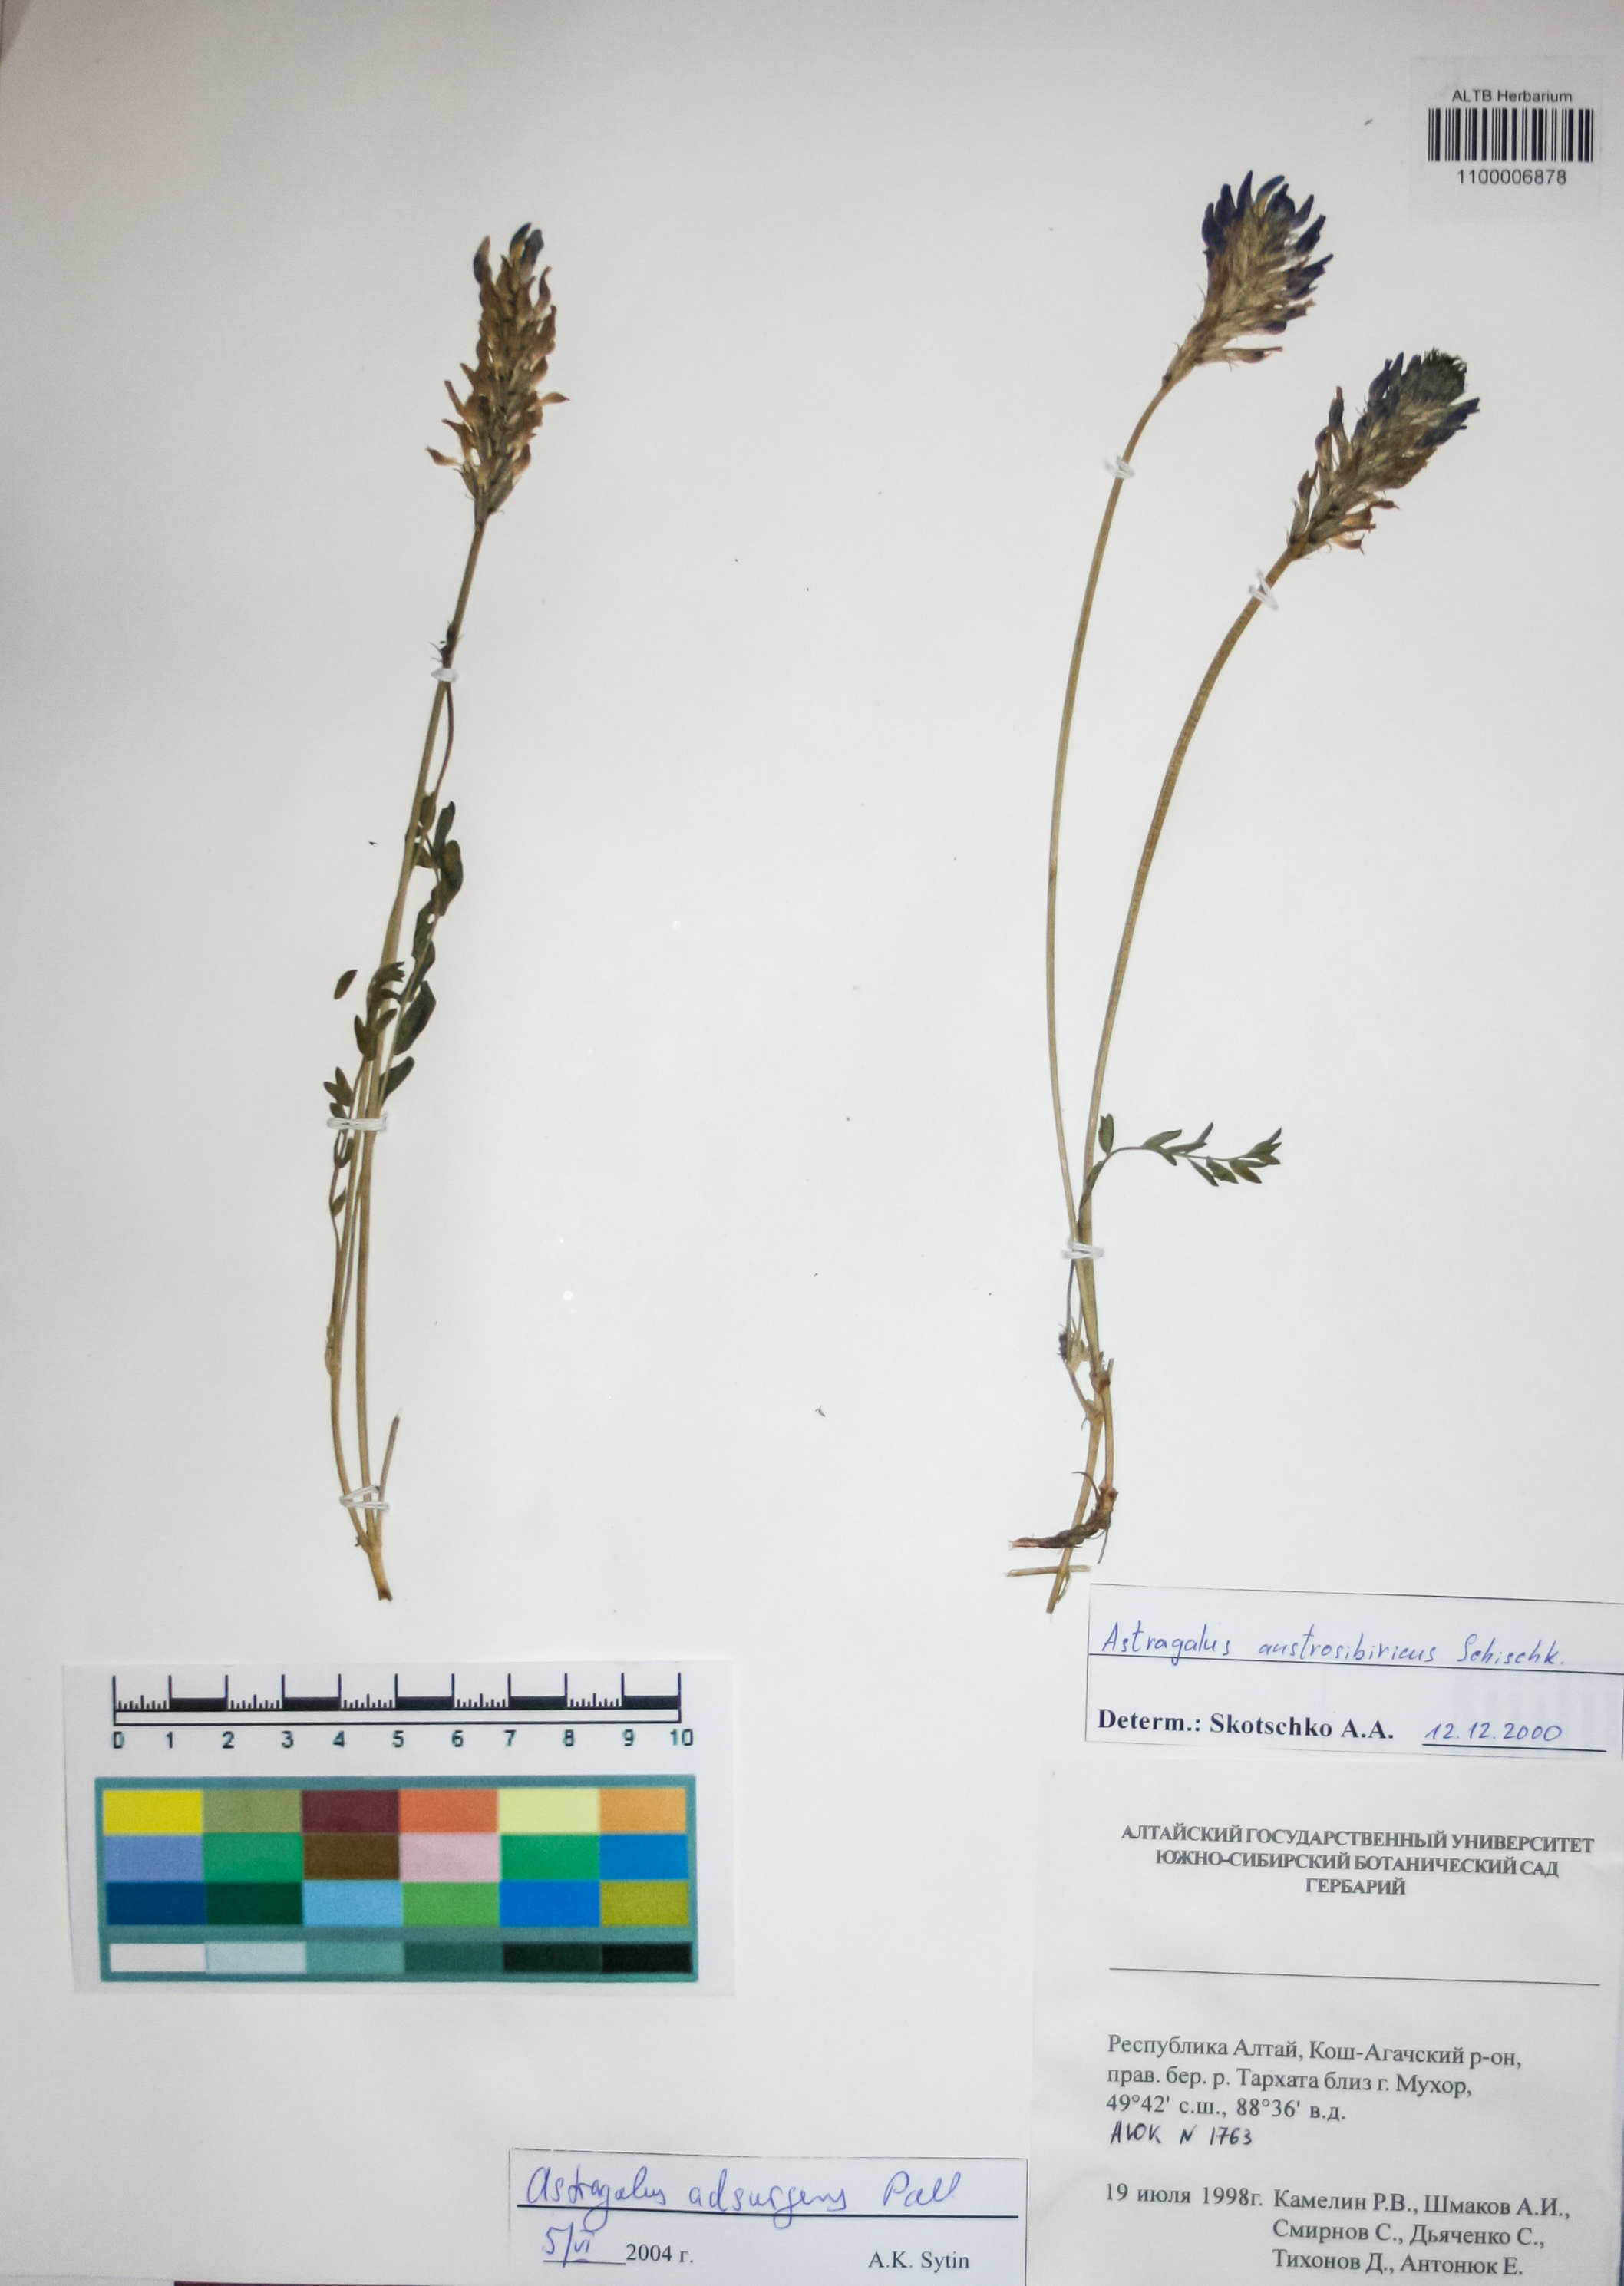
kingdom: Plantae
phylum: Tracheophyta
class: Magnoliopsida
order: Fabales
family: Fabaceae
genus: Astragalus
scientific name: Astragalus laxmannii
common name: Laxmann's milk-vetch
